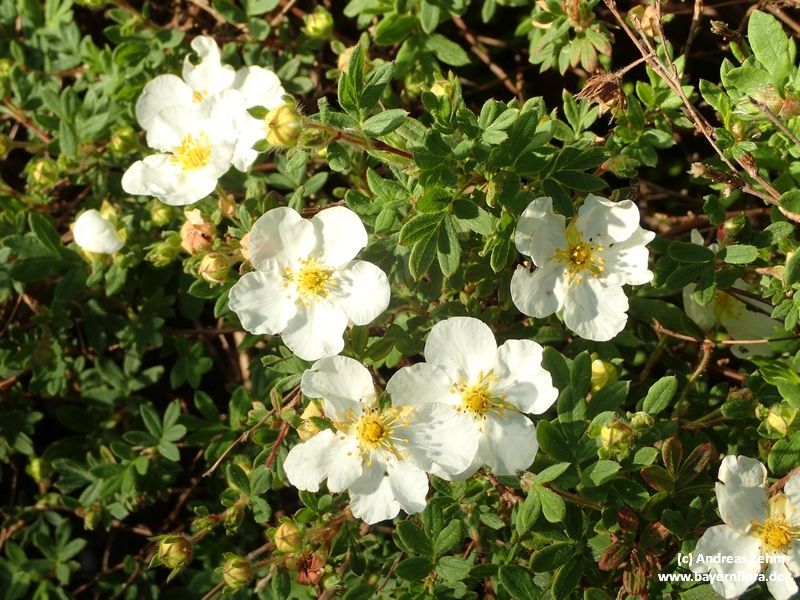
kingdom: Plantae
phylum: Tracheophyta
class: Magnoliopsida
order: Rosales
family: Rosaceae
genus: Dasiphora
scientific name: Dasiphora fruticosa
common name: Shrubby cinquefoil
